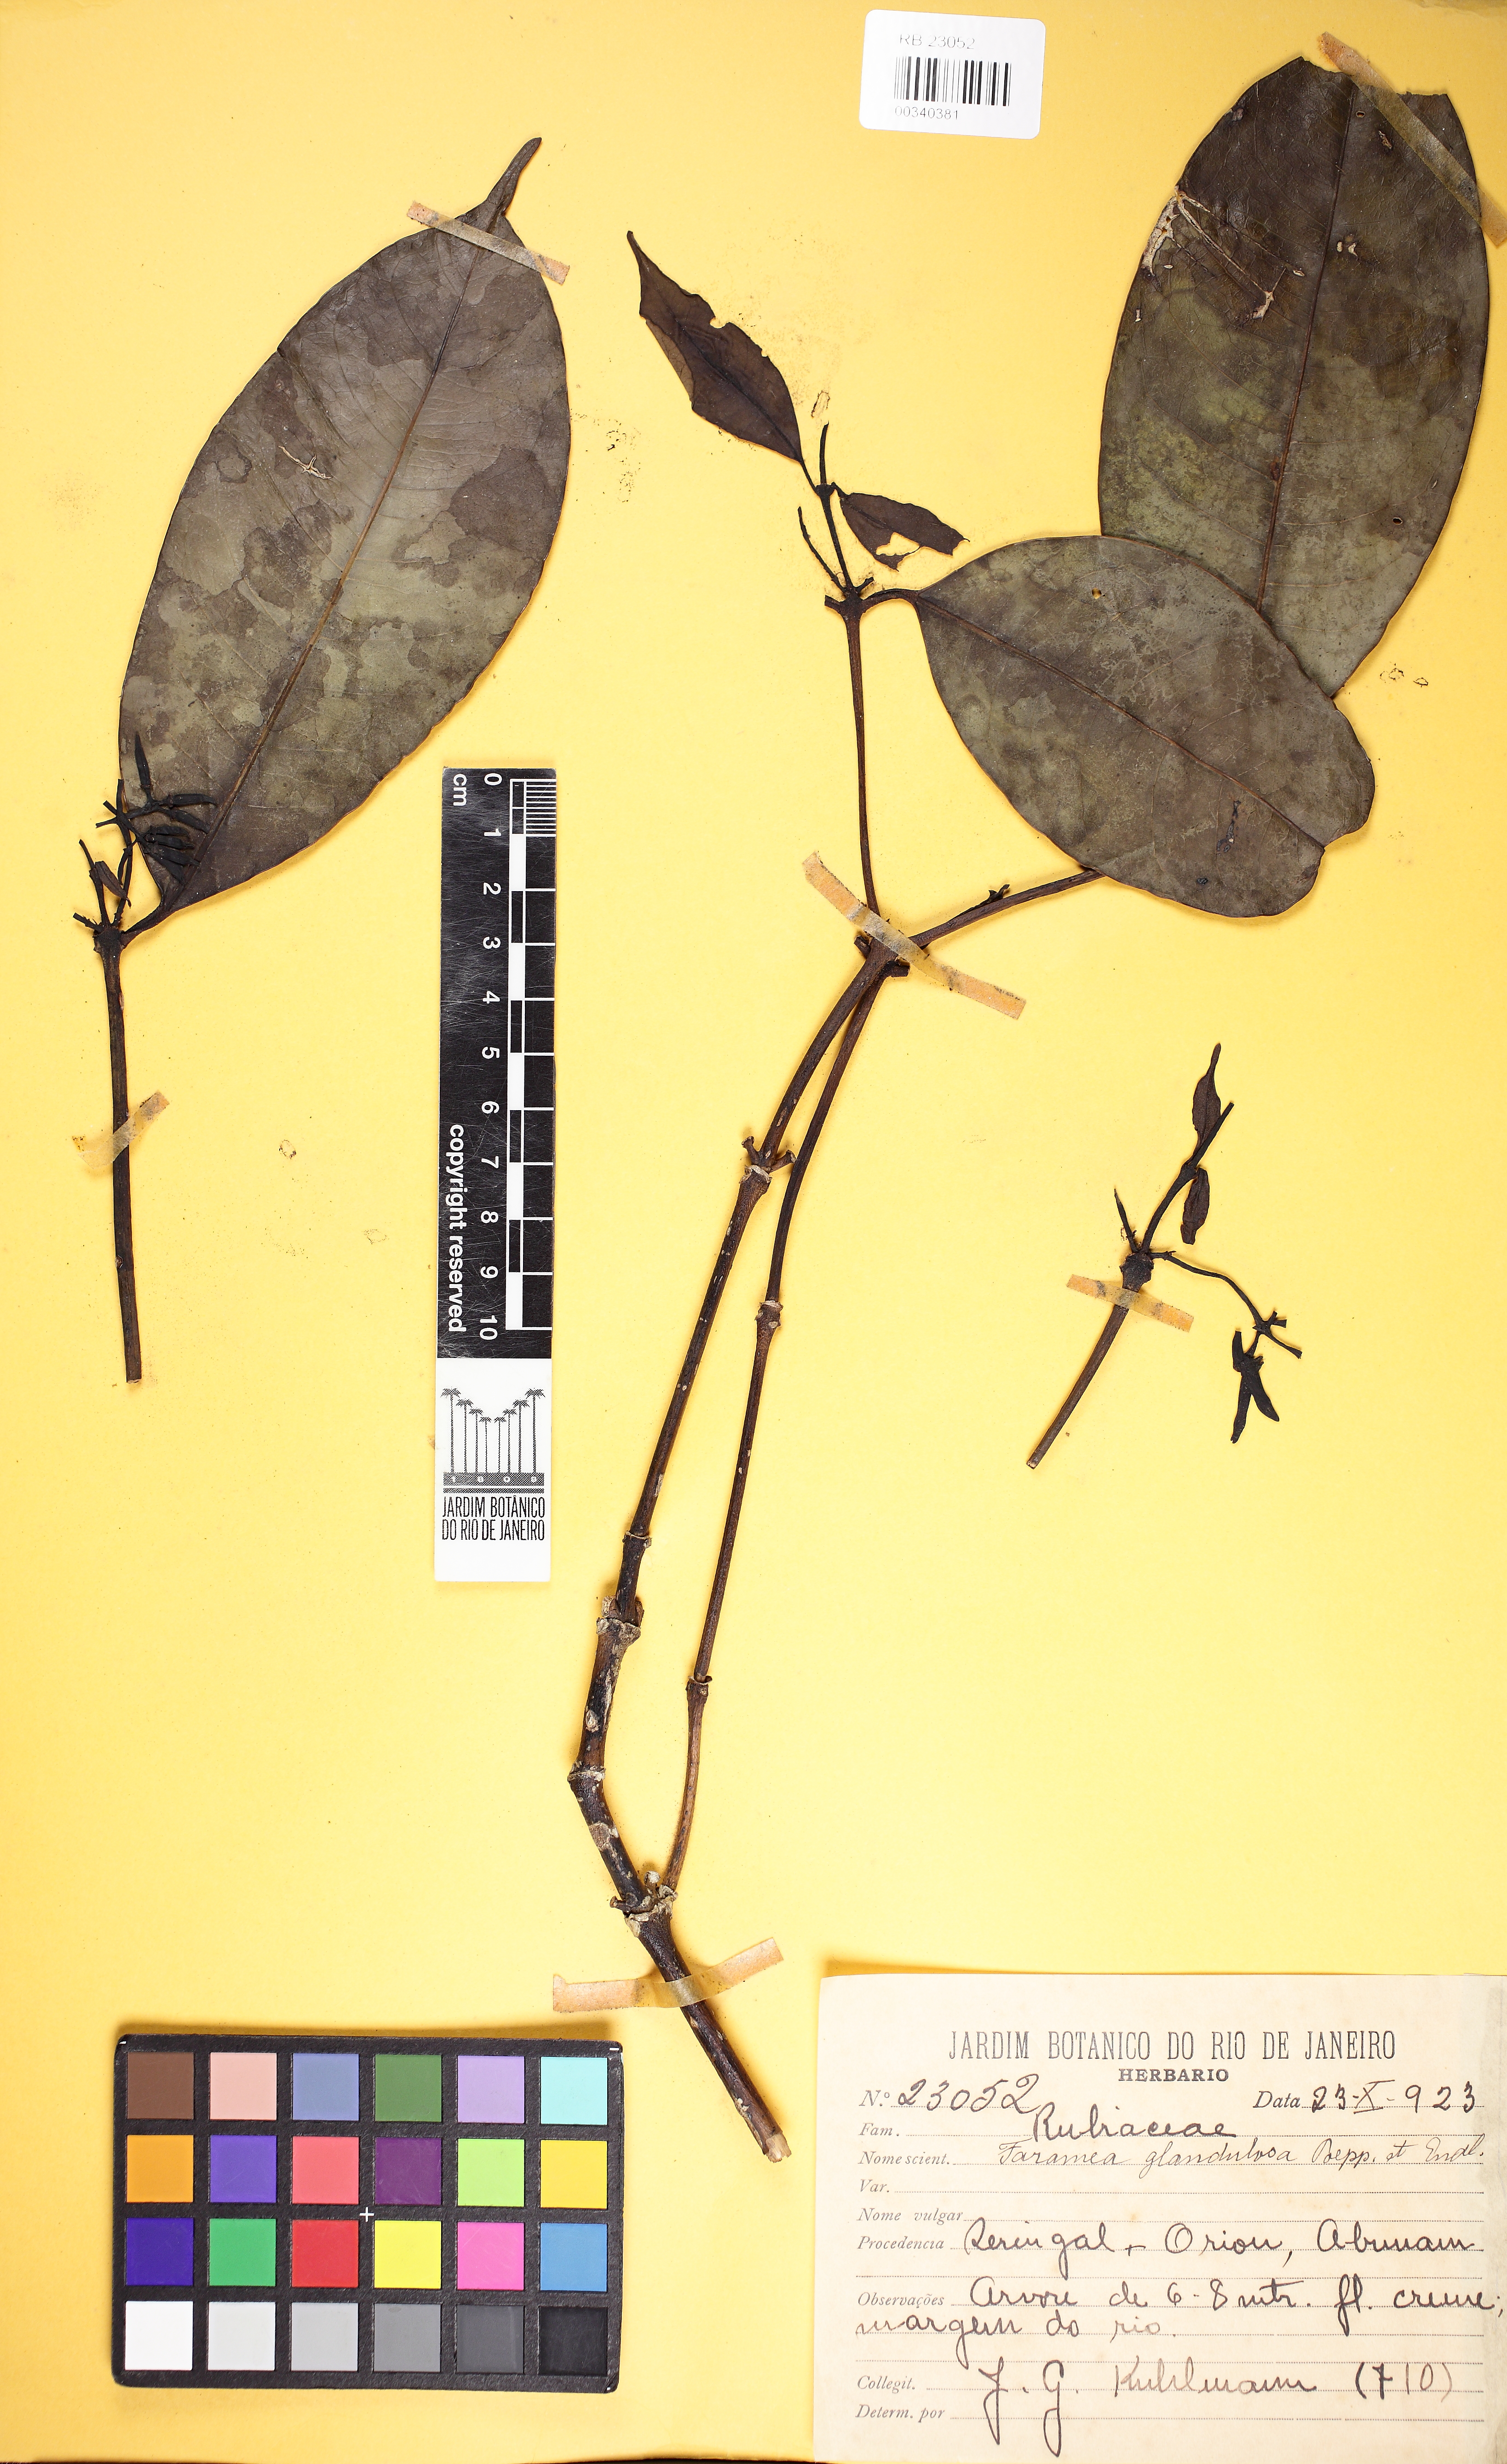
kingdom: Plantae
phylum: Tracheophyta
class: Magnoliopsida
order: Gentianales
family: Rubiaceae
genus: Faramea
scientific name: Faramea glandulosa
